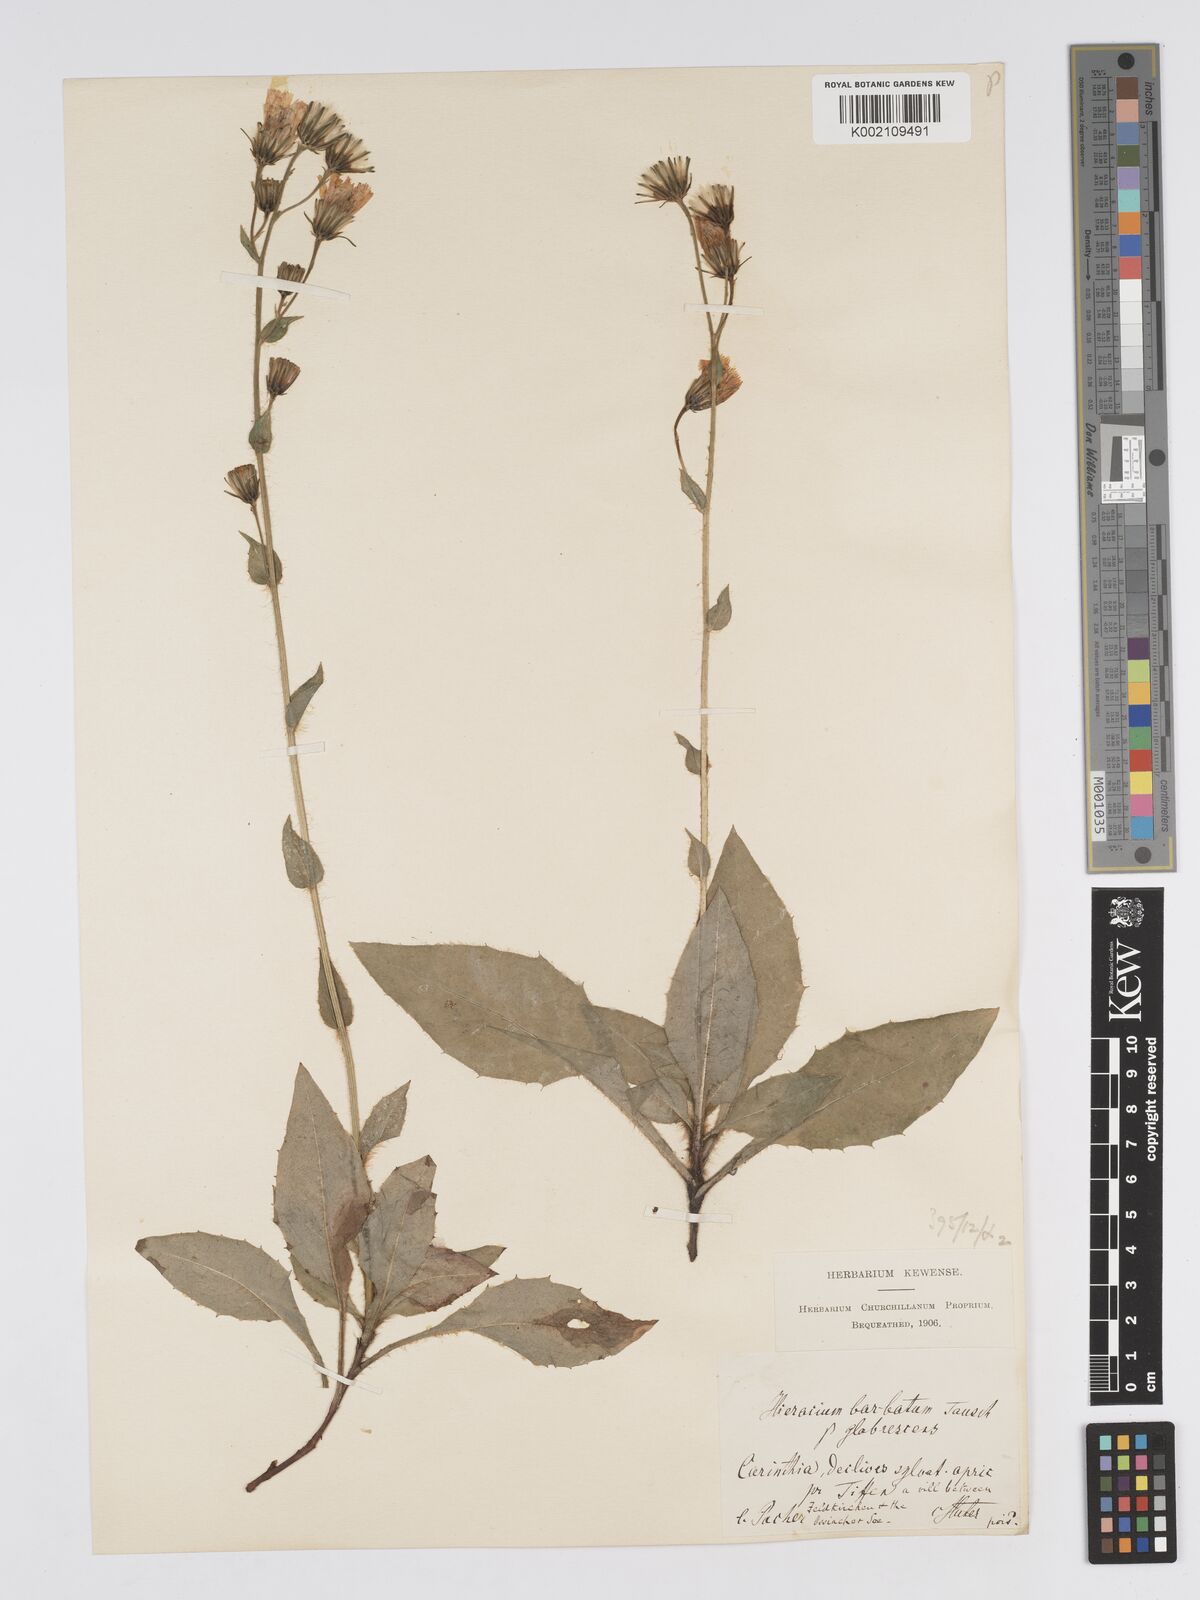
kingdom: Plantae
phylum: Tracheophyta
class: Magnoliopsida
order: Asterales
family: Asteraceae
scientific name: Asteraceae
